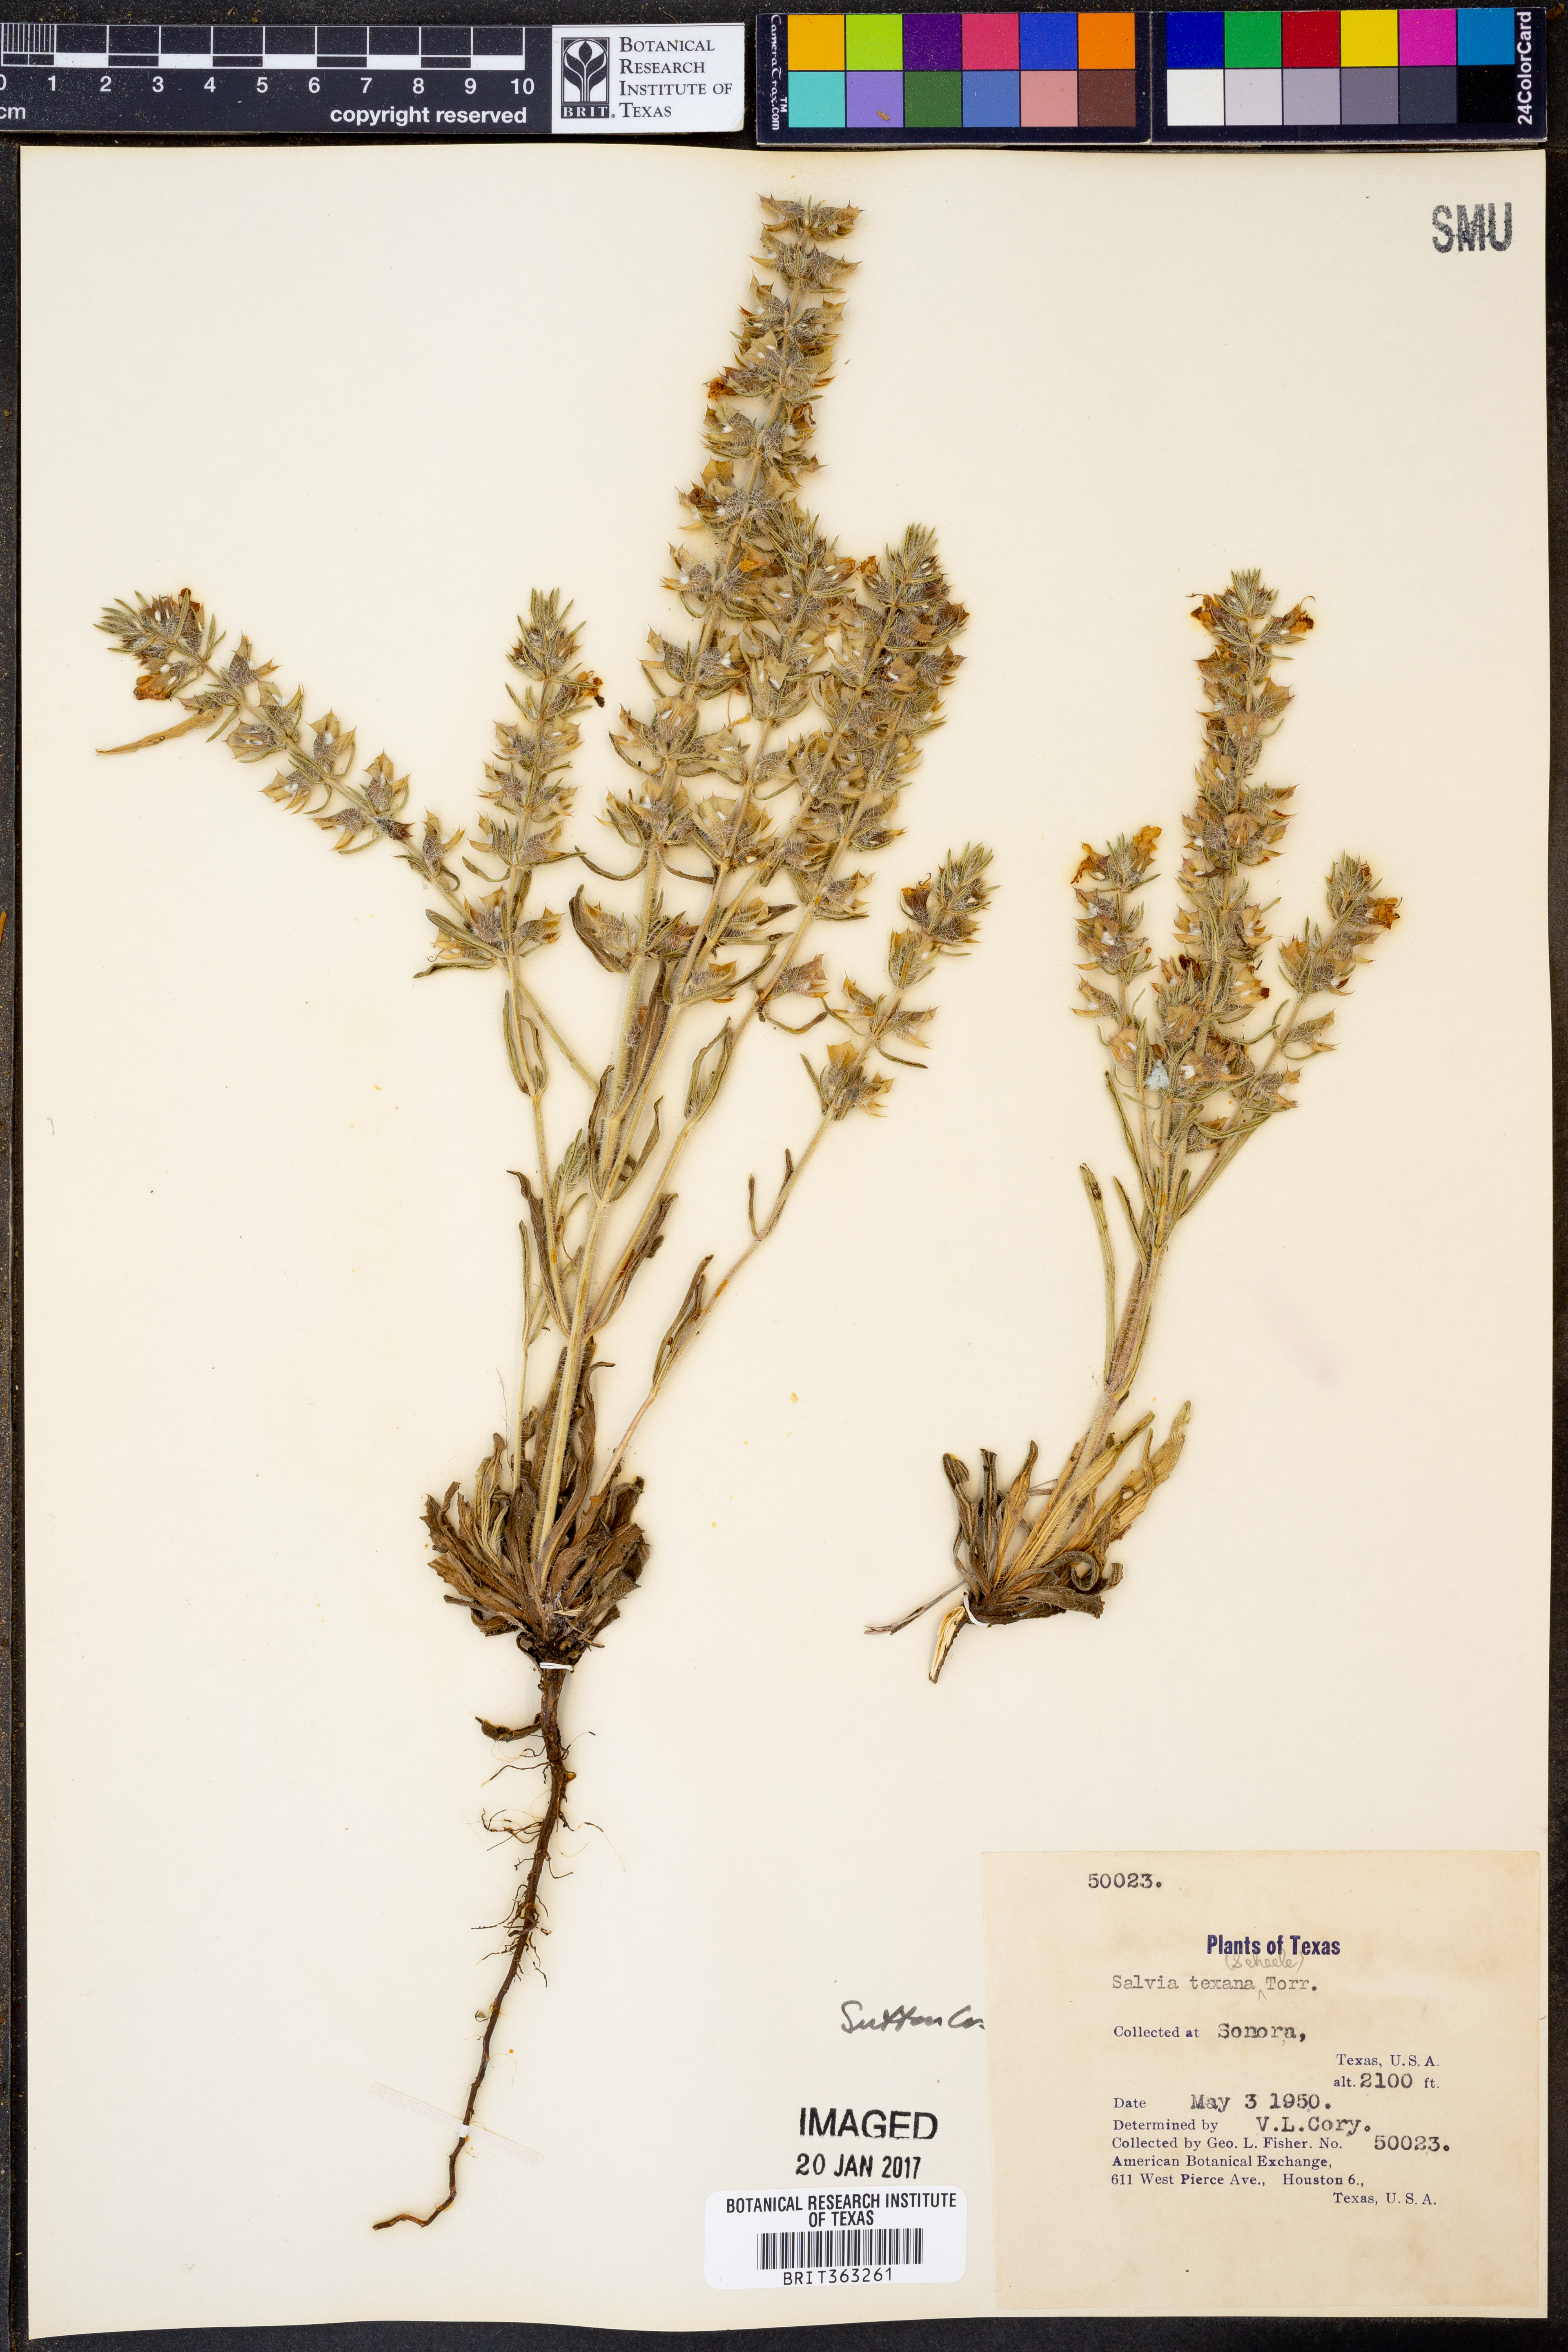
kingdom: Plantae
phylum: Tracheophyta
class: Magnoliopsida
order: Lamiales
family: Lamiaceae
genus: Salvia
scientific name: Salvia texana
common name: Texas sage
